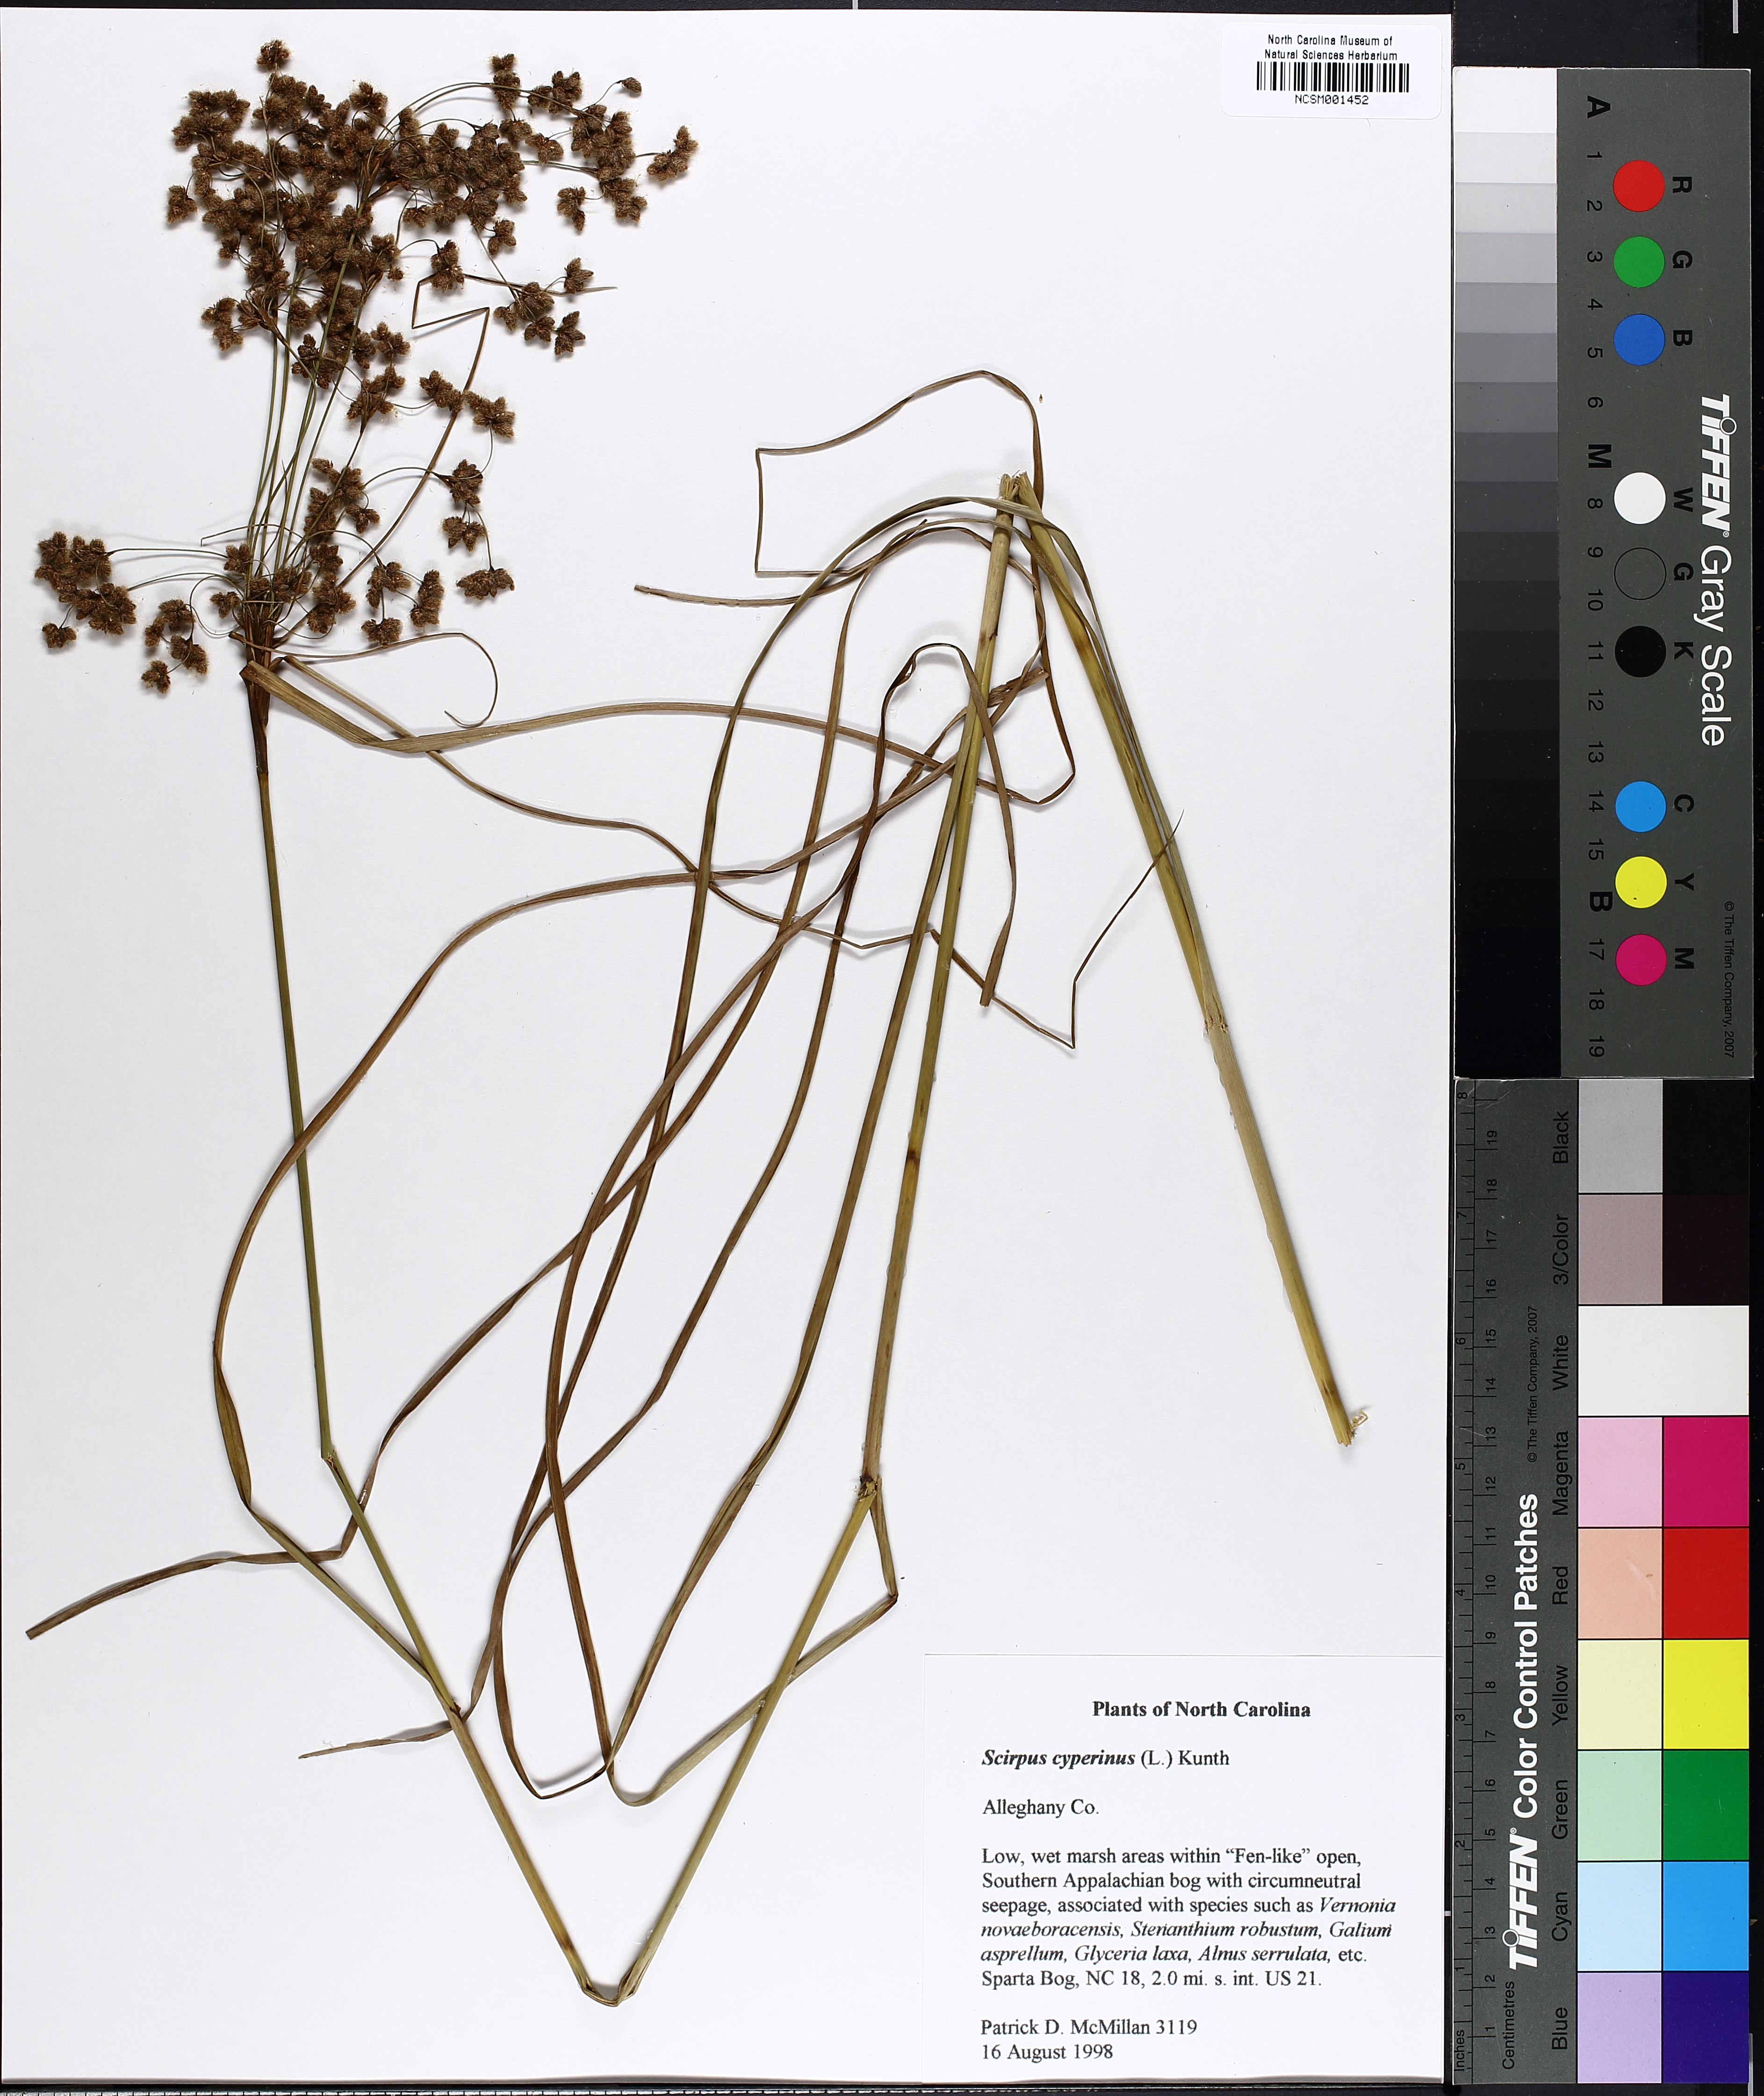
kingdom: Plantae
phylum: Tracheophyta
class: Liliopsida
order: Poales
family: Cyperaceae
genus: Scirpus
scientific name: Scirpus cyperinus
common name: Black-sheathed bulrush
